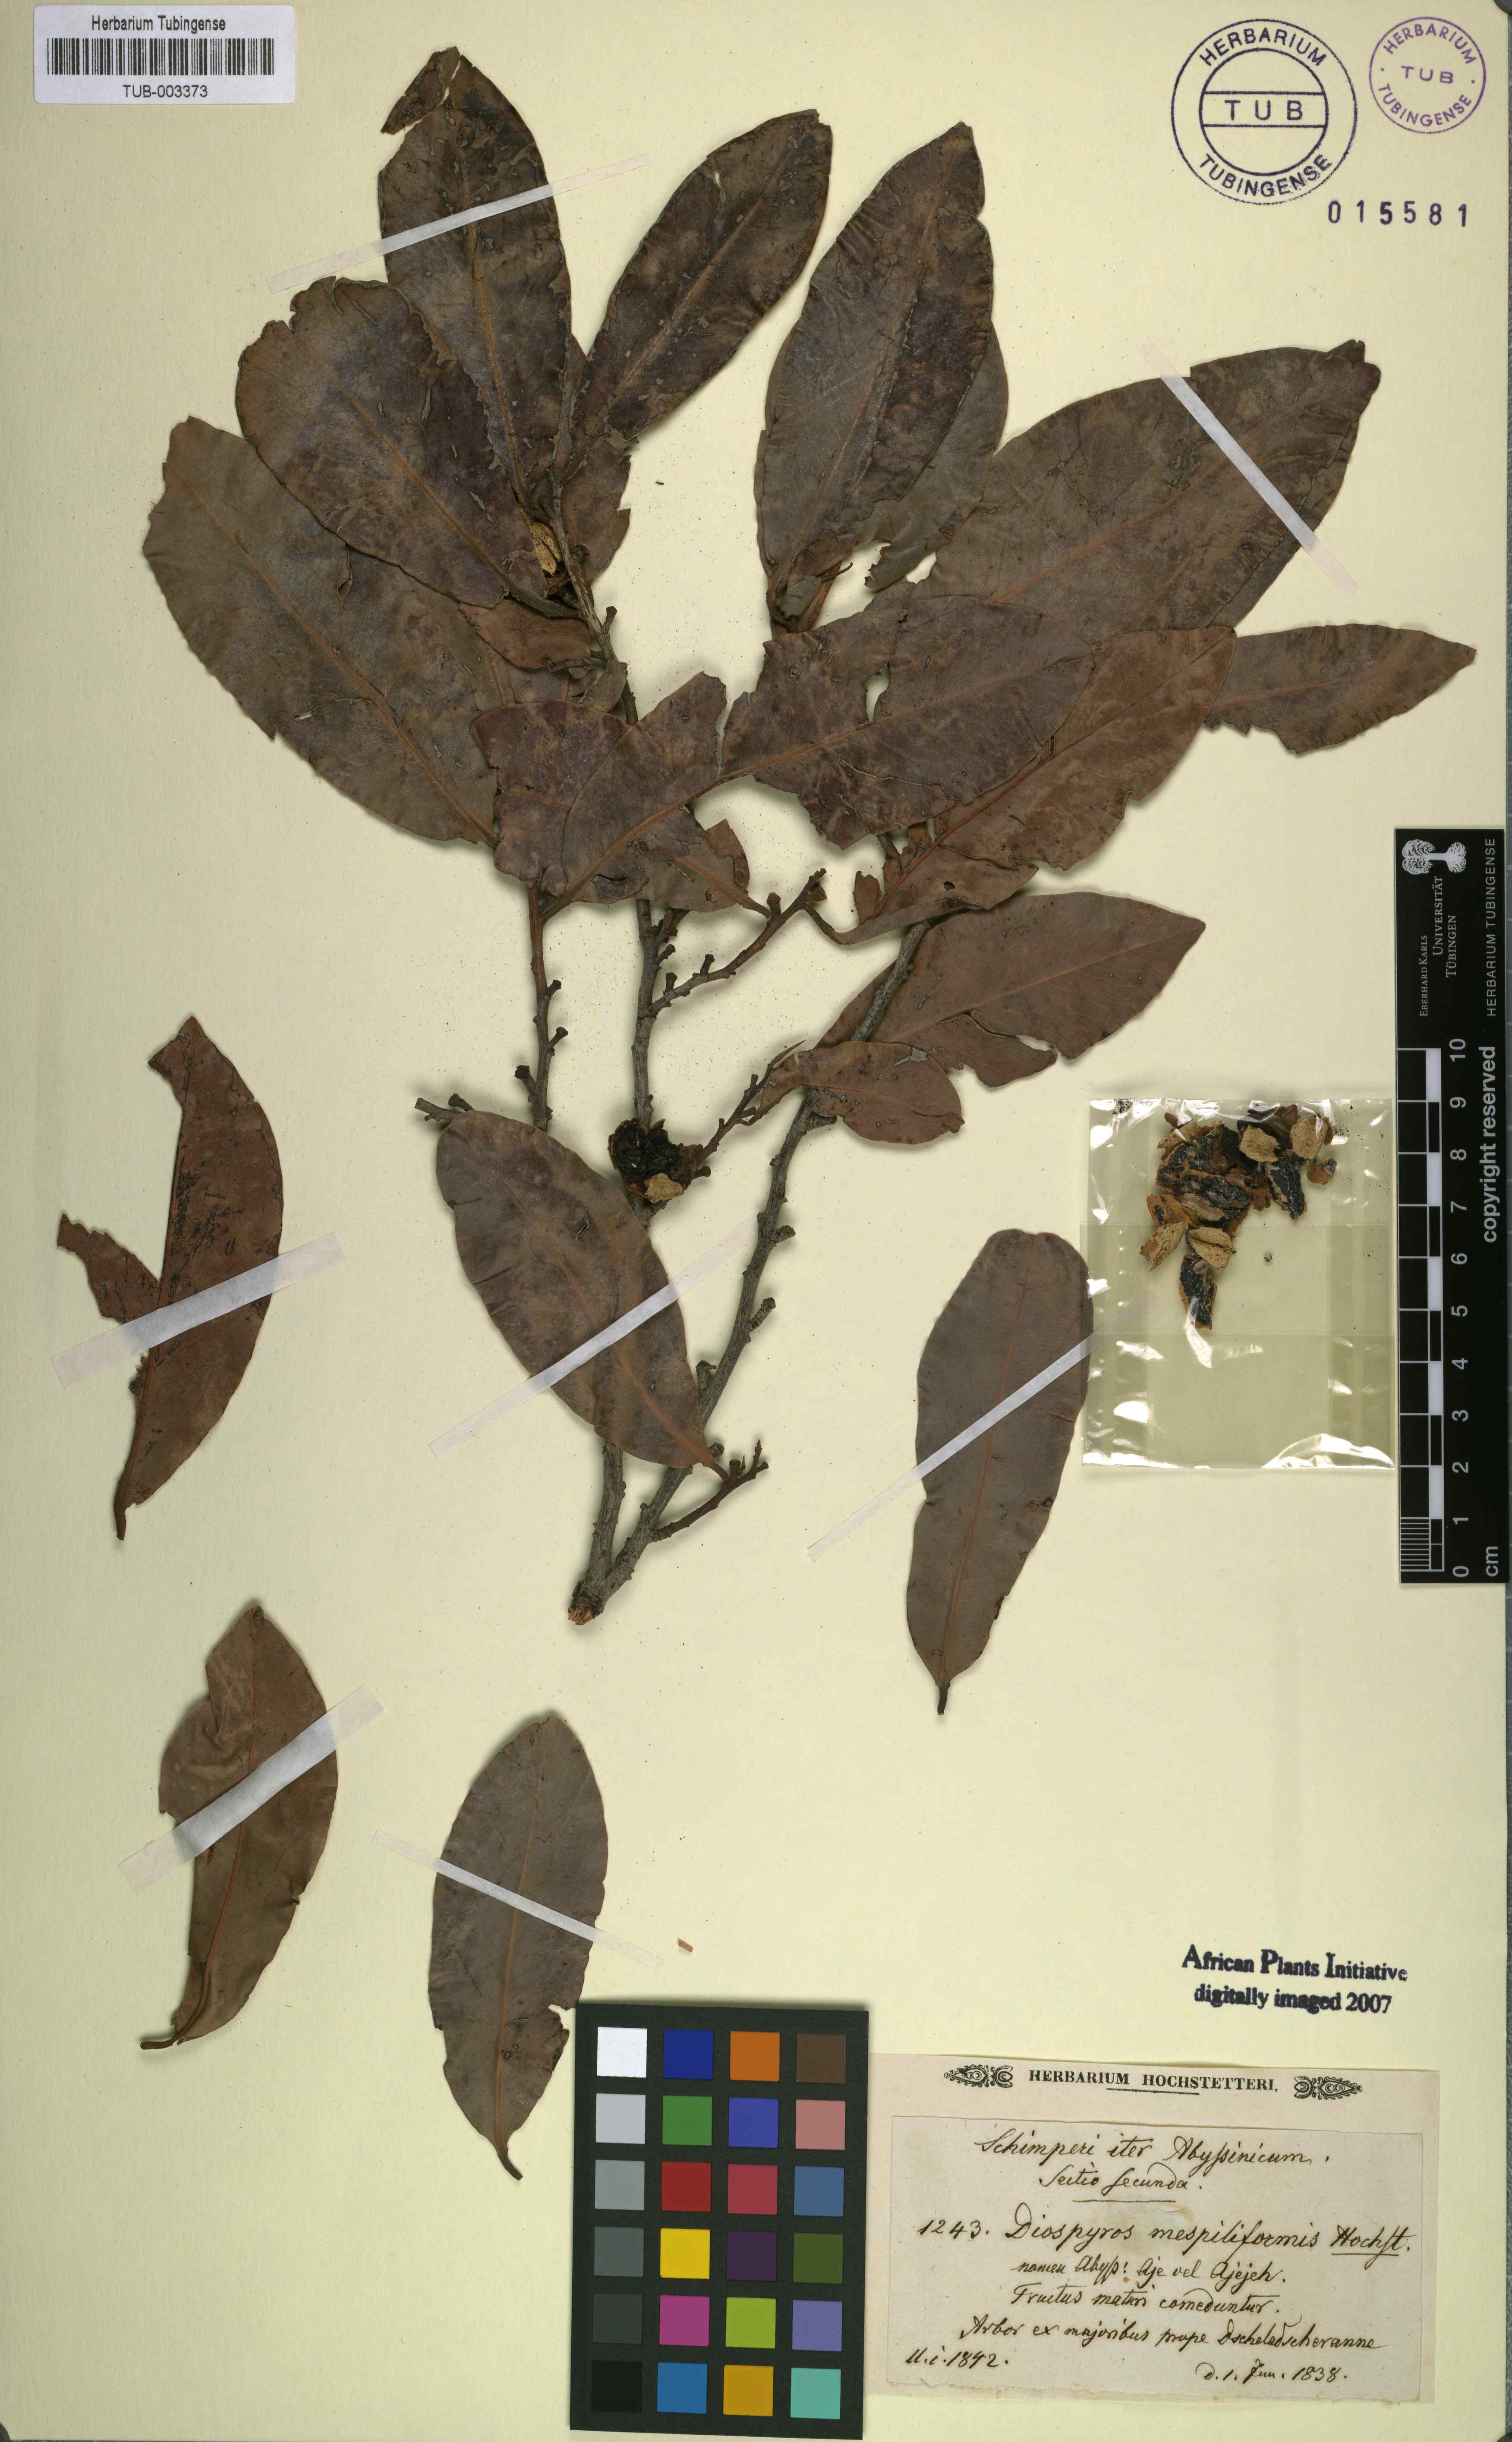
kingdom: Plantae
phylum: Tracheophyta
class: Magnoliopsida
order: Ericales
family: Ebenaceae
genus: Diospyros
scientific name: Diospyros mespiliformis
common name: Ebony diospyros
